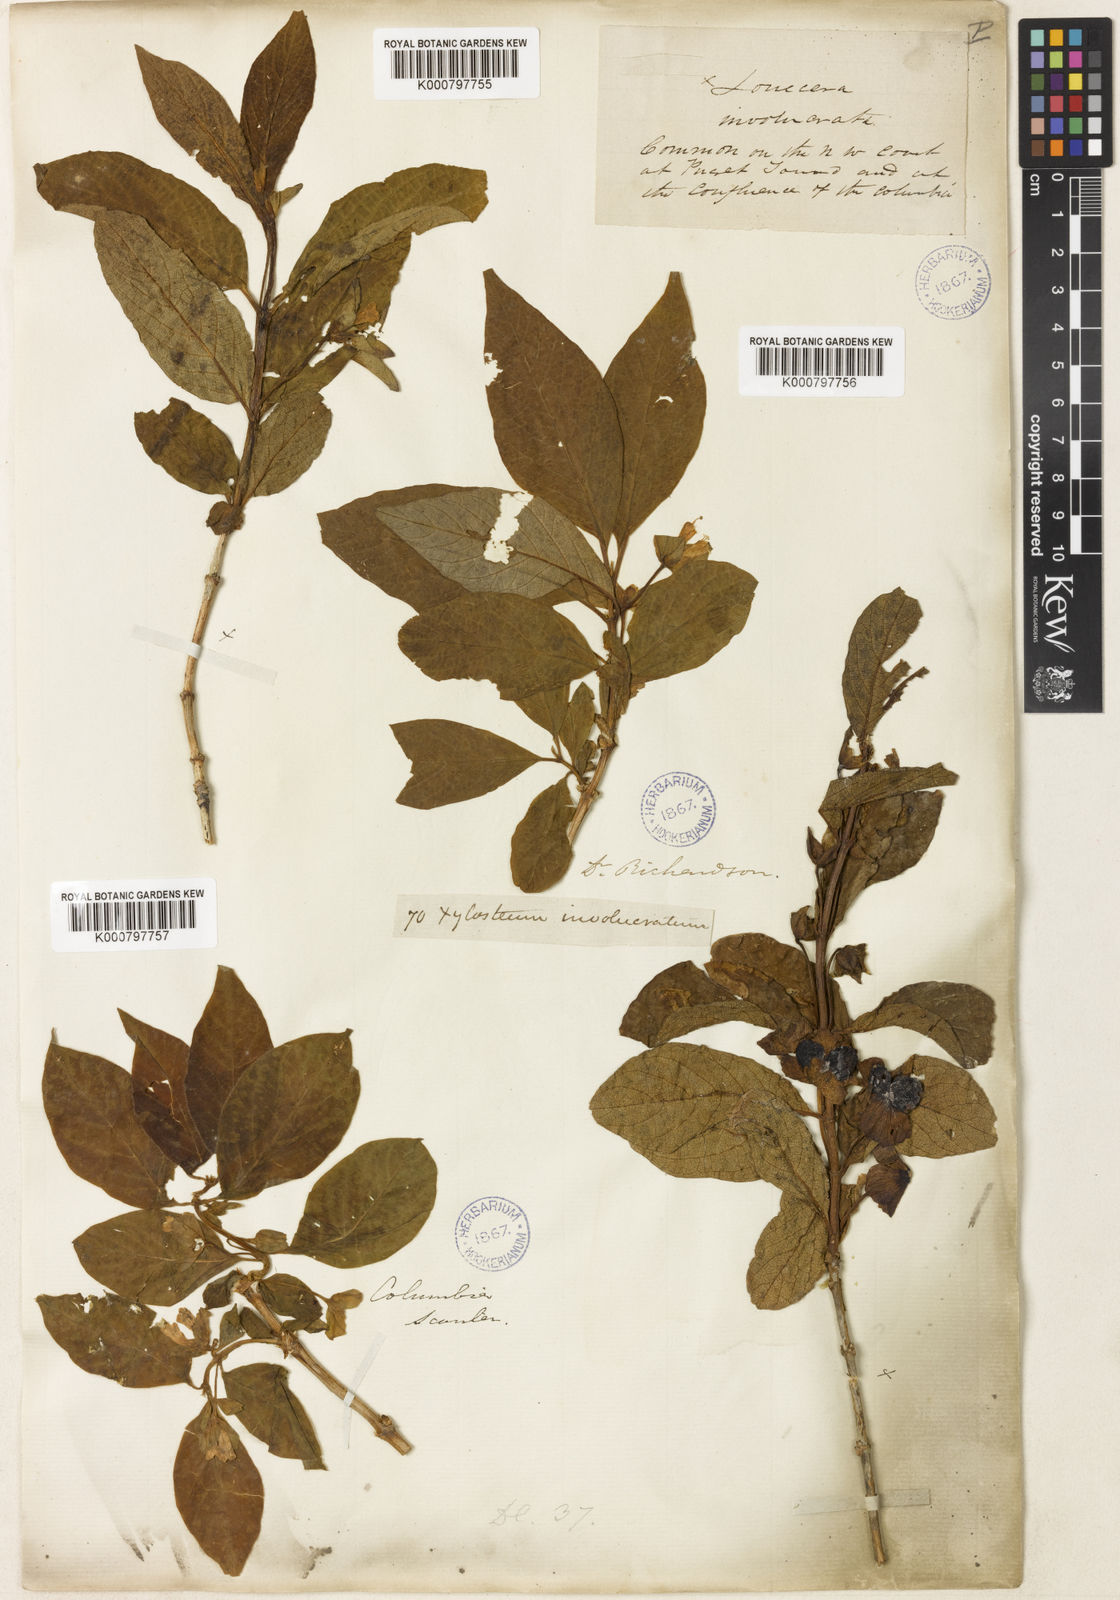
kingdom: Plantae
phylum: Tracheophyta
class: Magnoliopsida
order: Dipsacales
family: Caprifoliaceae
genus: Lonicera
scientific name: Lonicera involucrata
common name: Californian honeysuckle
